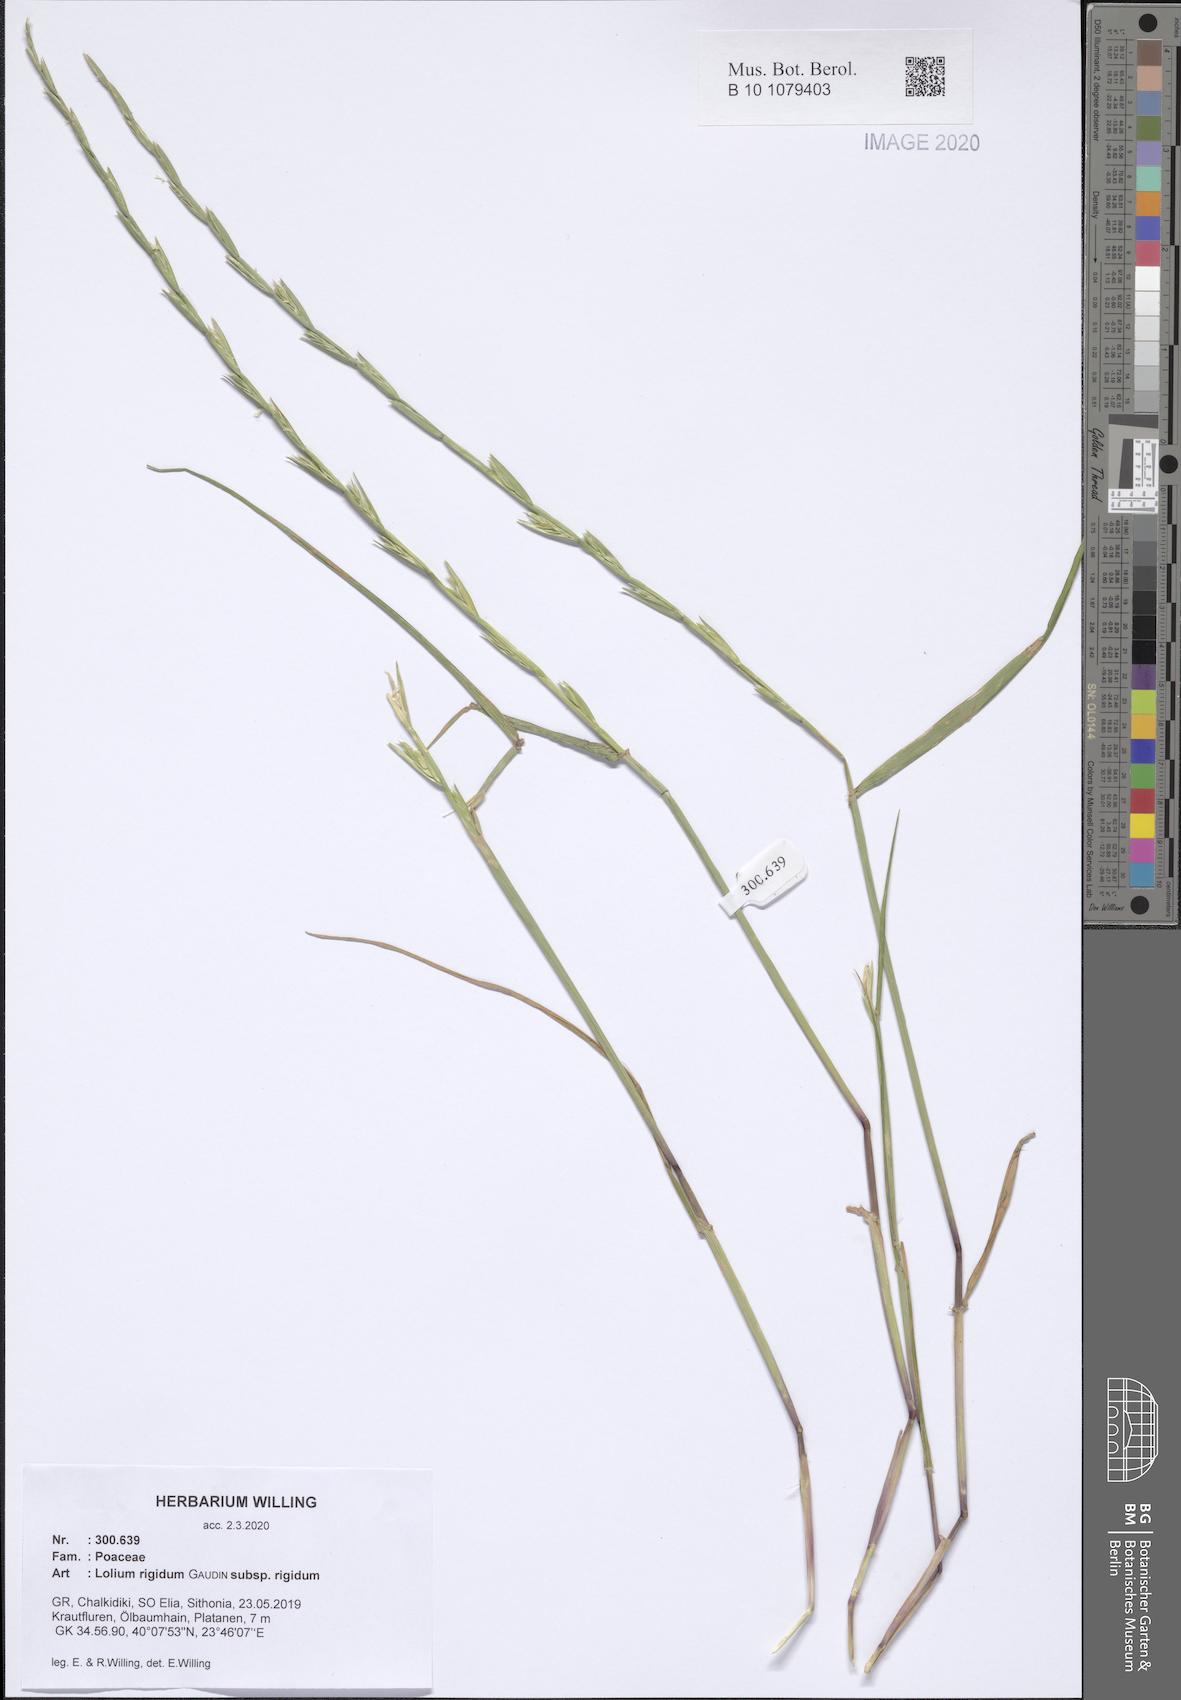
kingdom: Plantae
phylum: Tracheophyta
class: Liliopsida
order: Poales
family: Poaceae
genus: Lolium
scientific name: Lolium rigidum
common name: Wimmera ryegrass
